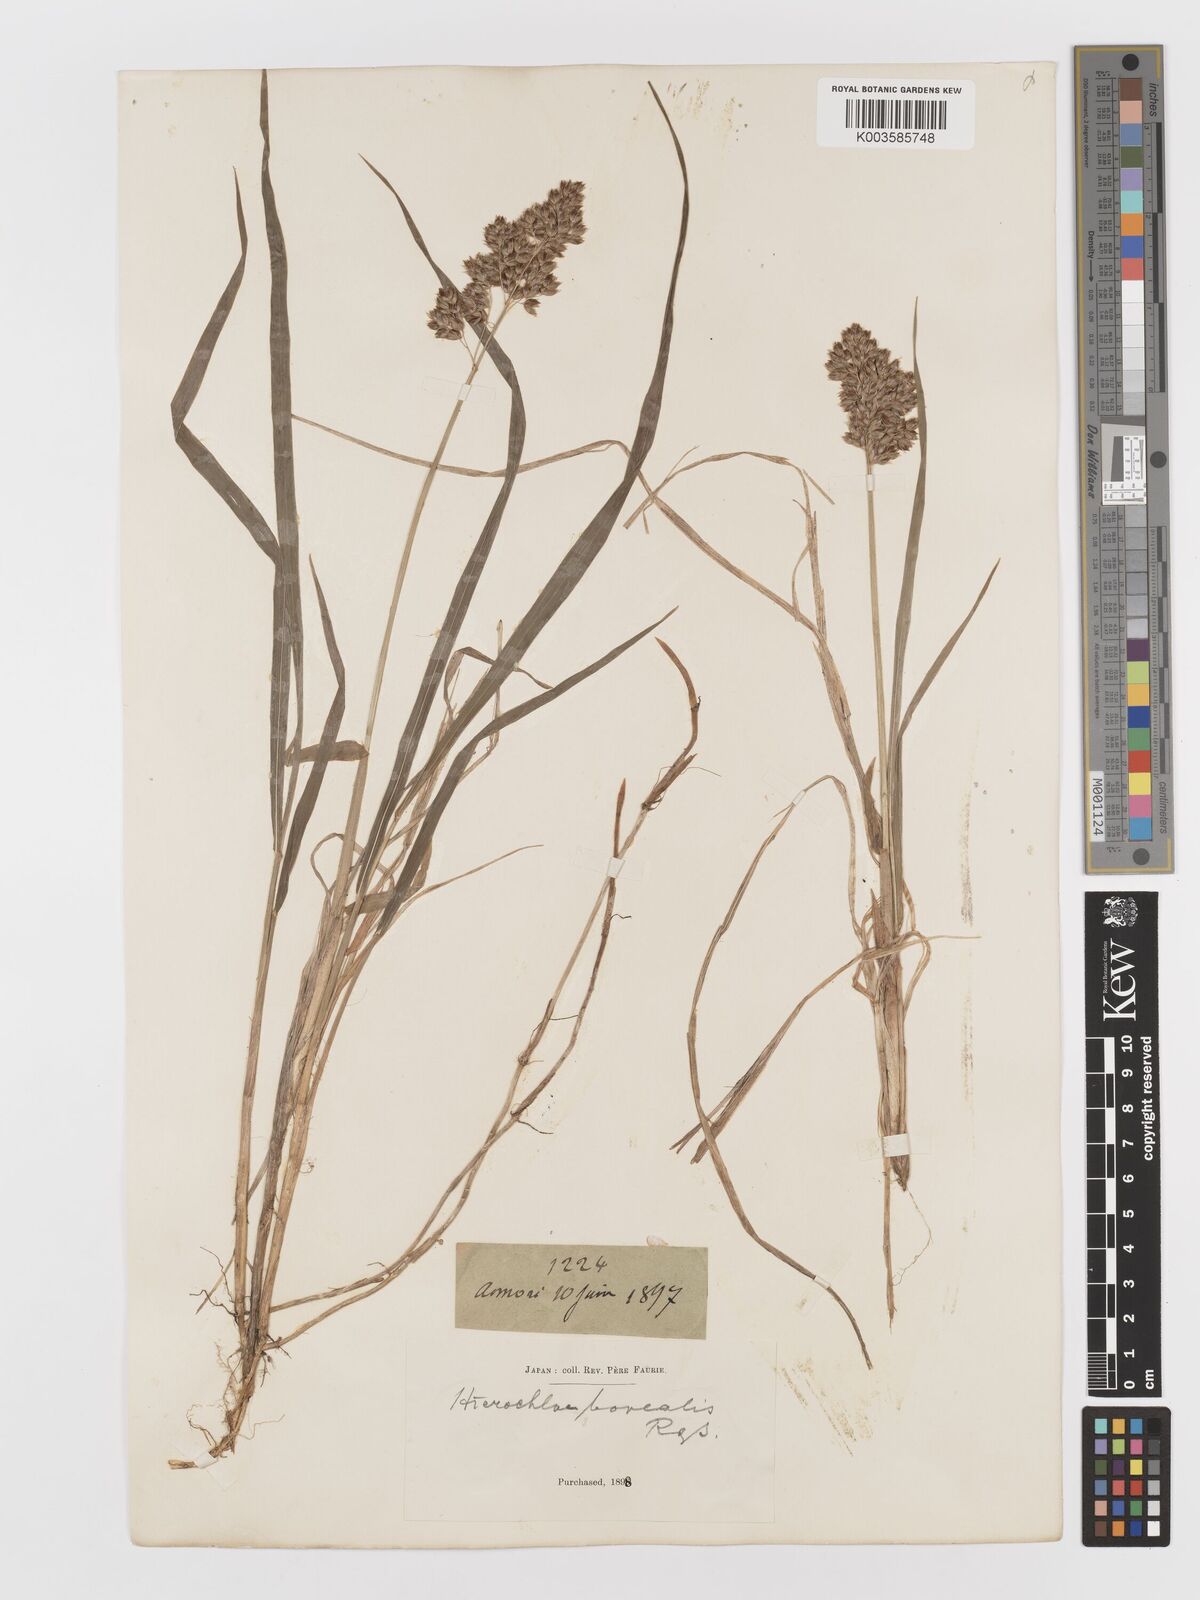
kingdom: Plantae
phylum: Tracheophyta
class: Liliopsida
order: Poales
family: Poaceae
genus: Anthoxanthum
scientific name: Anthoxanthum nitens
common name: Holy grass
